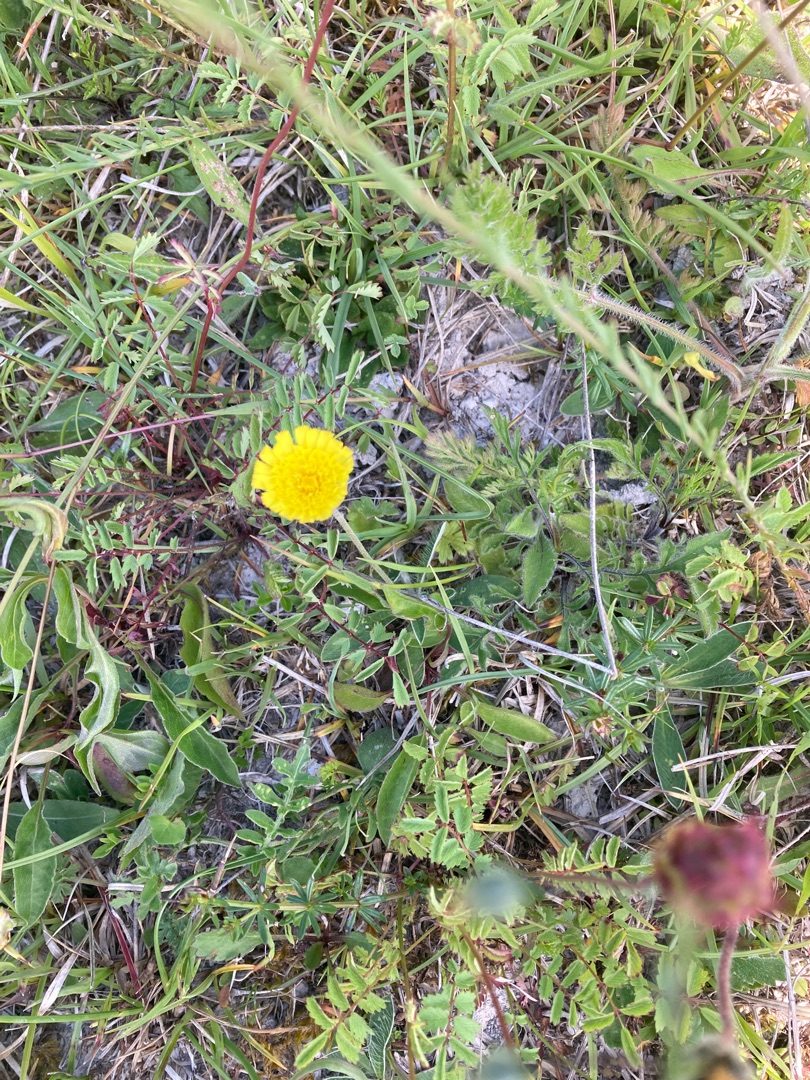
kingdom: Plantae
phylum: Tracheophyta
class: Magnoliopsida
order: Asterales
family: Asteraceae
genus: Pilosella
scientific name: Pilosella officinarum
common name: Håret høgeurt
